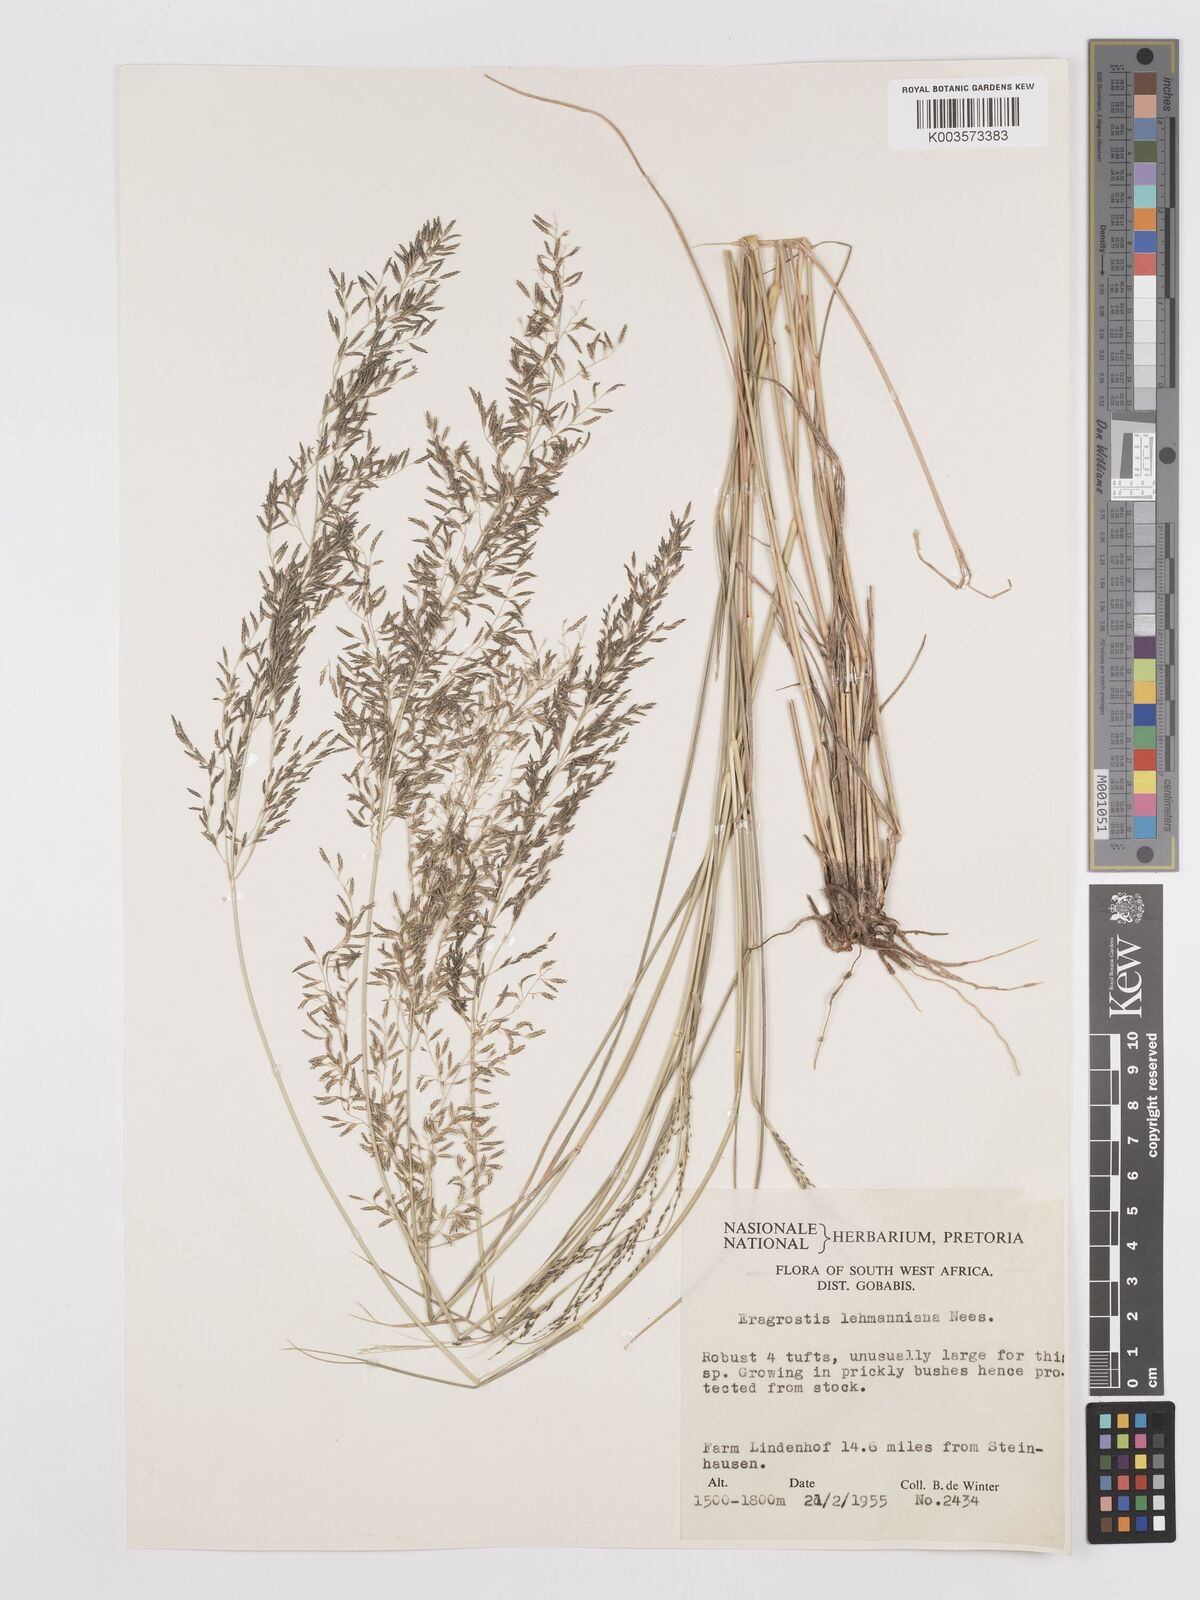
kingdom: Plantae
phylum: Tracheophyta
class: Liliopsida
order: Poales
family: Poaceae
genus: Eragrostis
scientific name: Eragrostis lehmanniana
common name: Lehmann lovegrass
